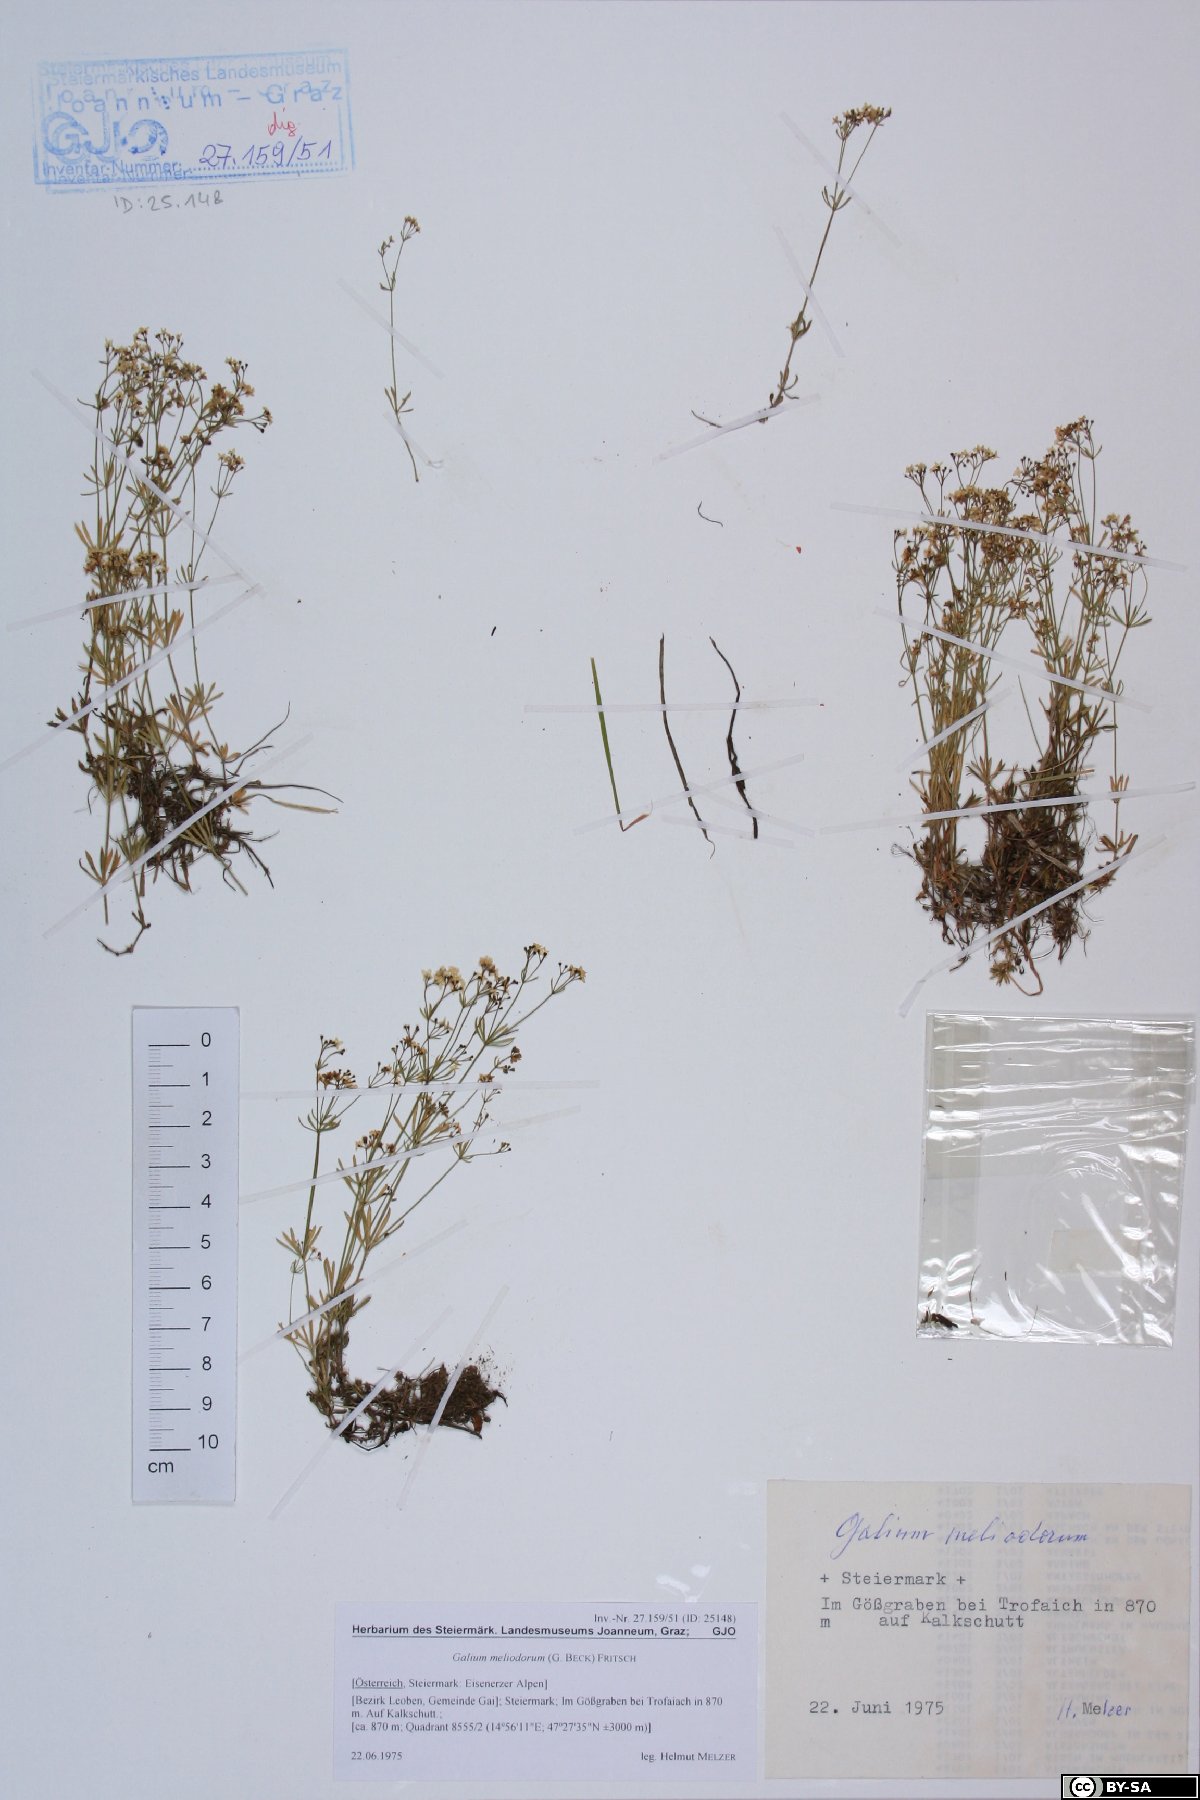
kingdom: Plantae
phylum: Tracheophyta
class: Magnoliopsida
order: Gentianales
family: Rubiaceae
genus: Galium
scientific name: Galium meliodorum
